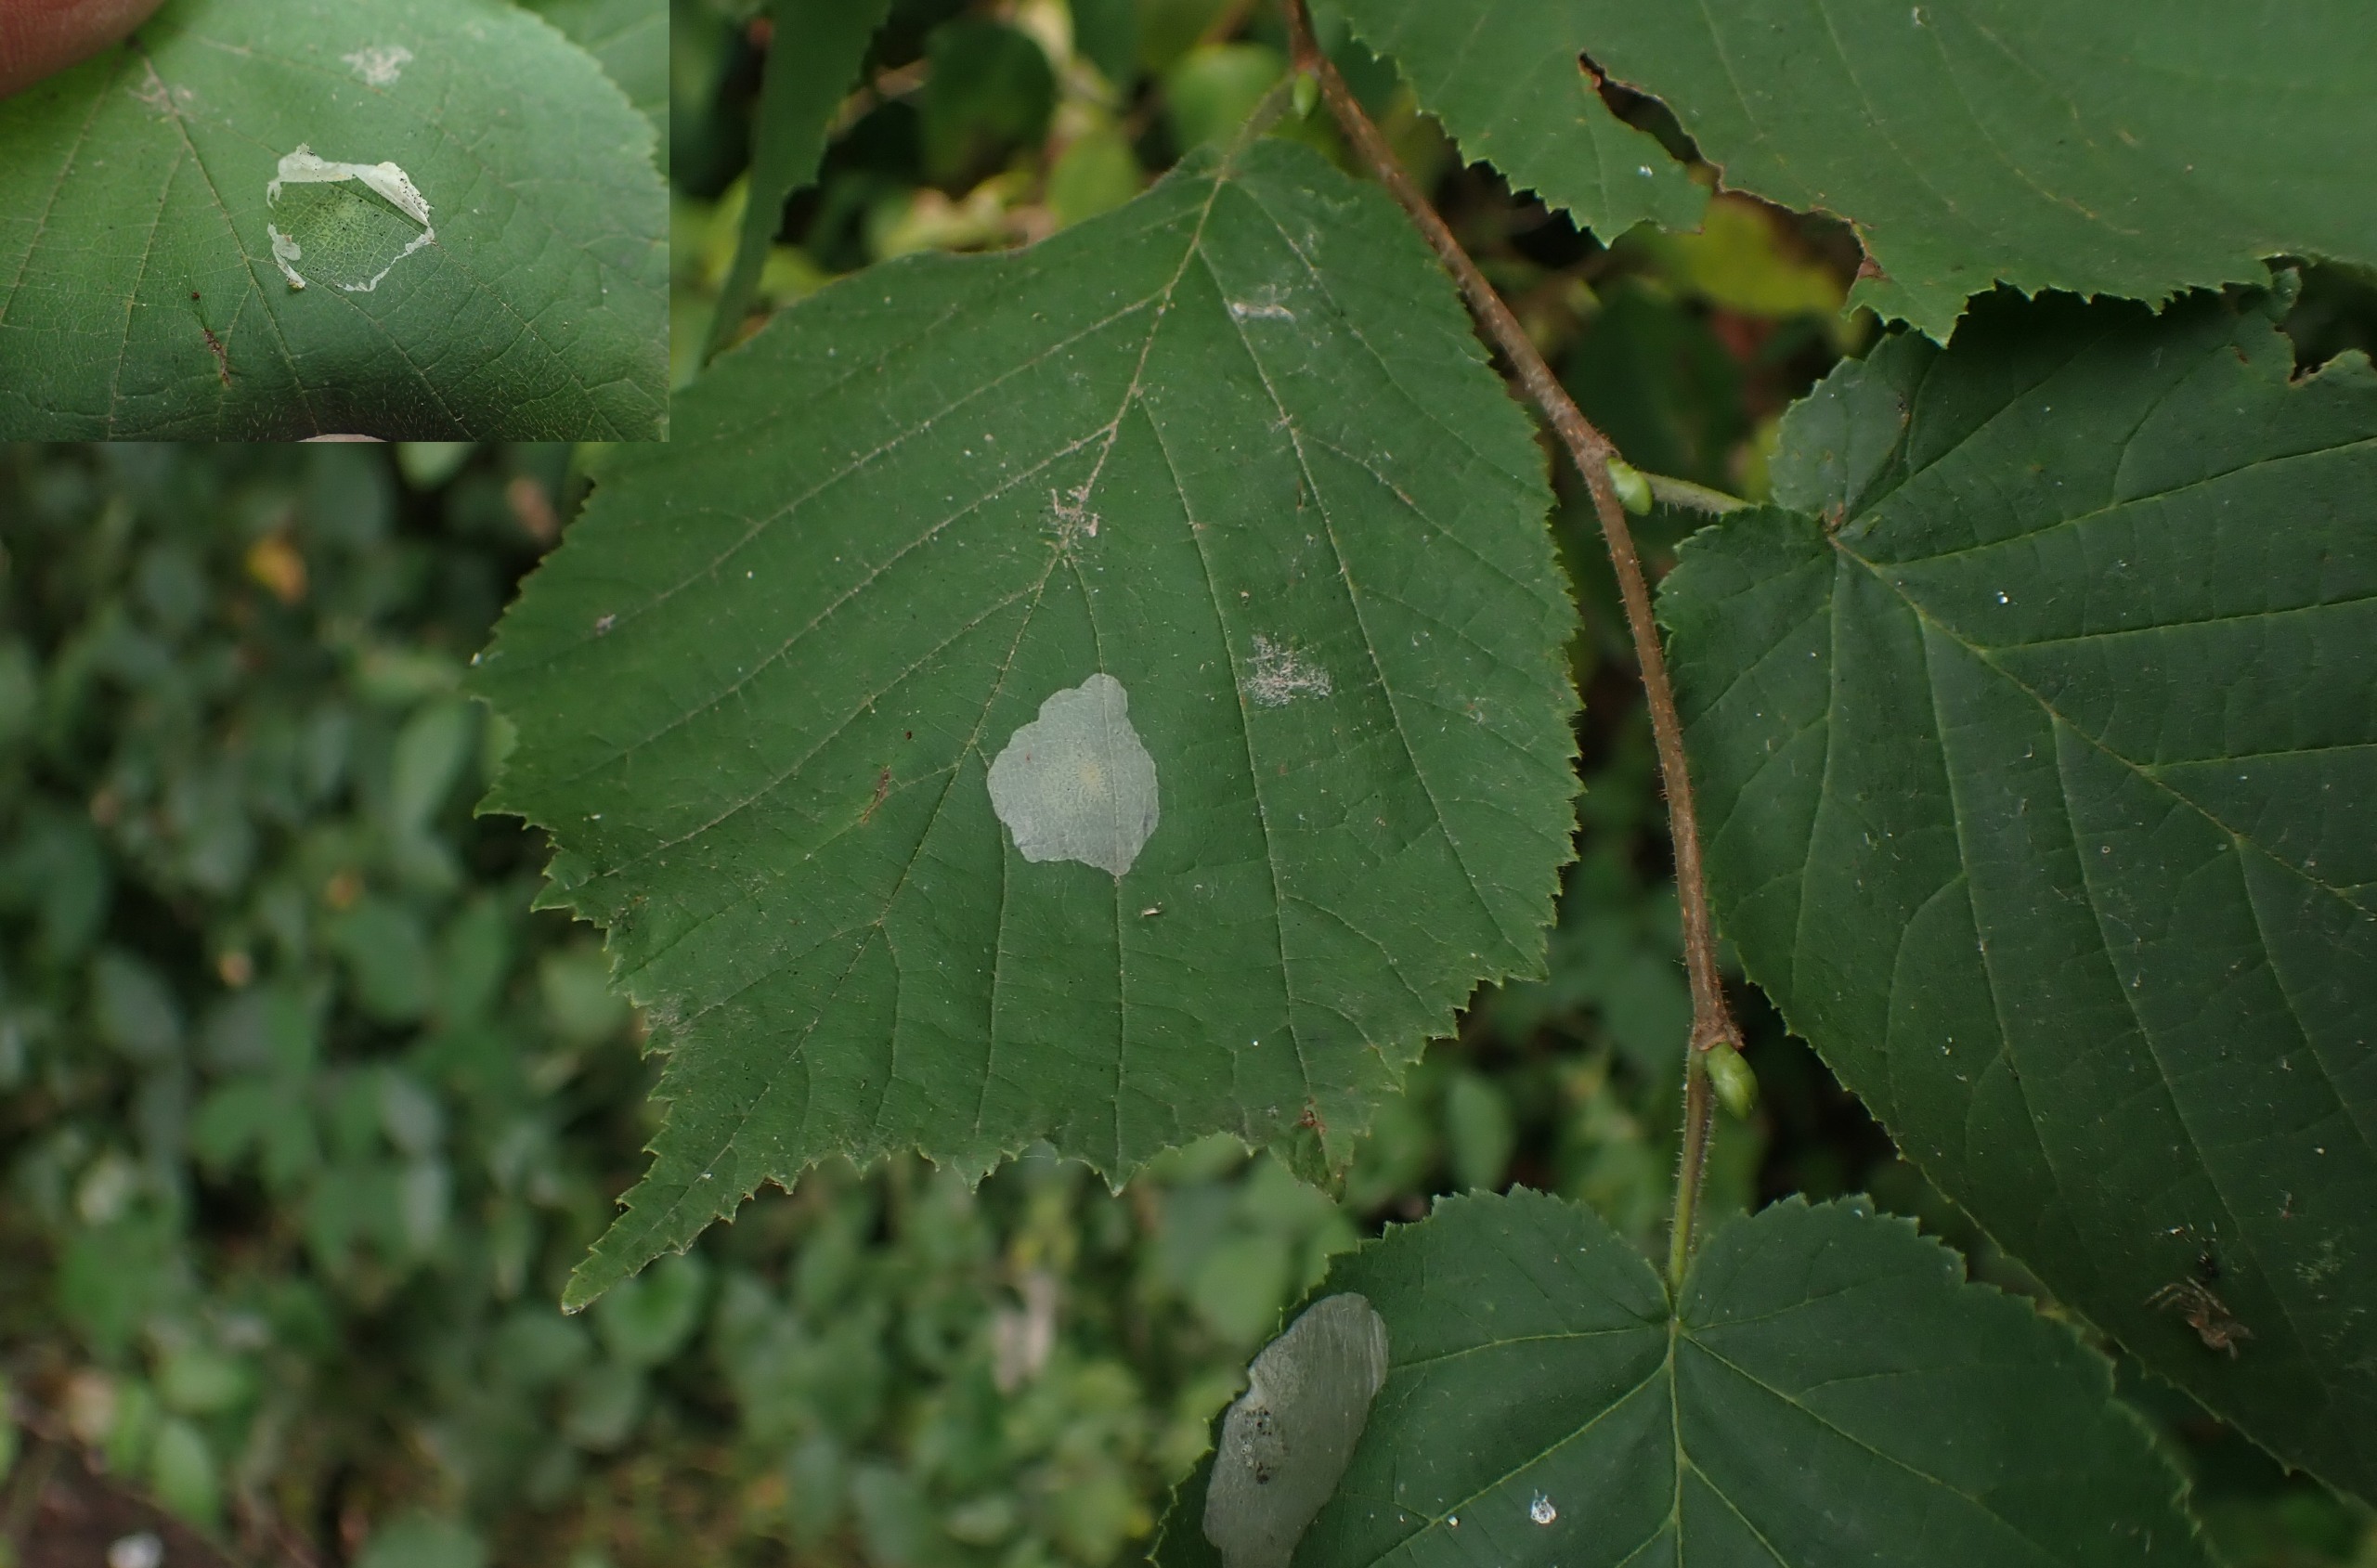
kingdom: Animalia
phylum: Arthropoda
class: Insecta
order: Lepidoptera
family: Gracillariidae
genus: Phyllonorycter
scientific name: Phyllonorycter coryli
